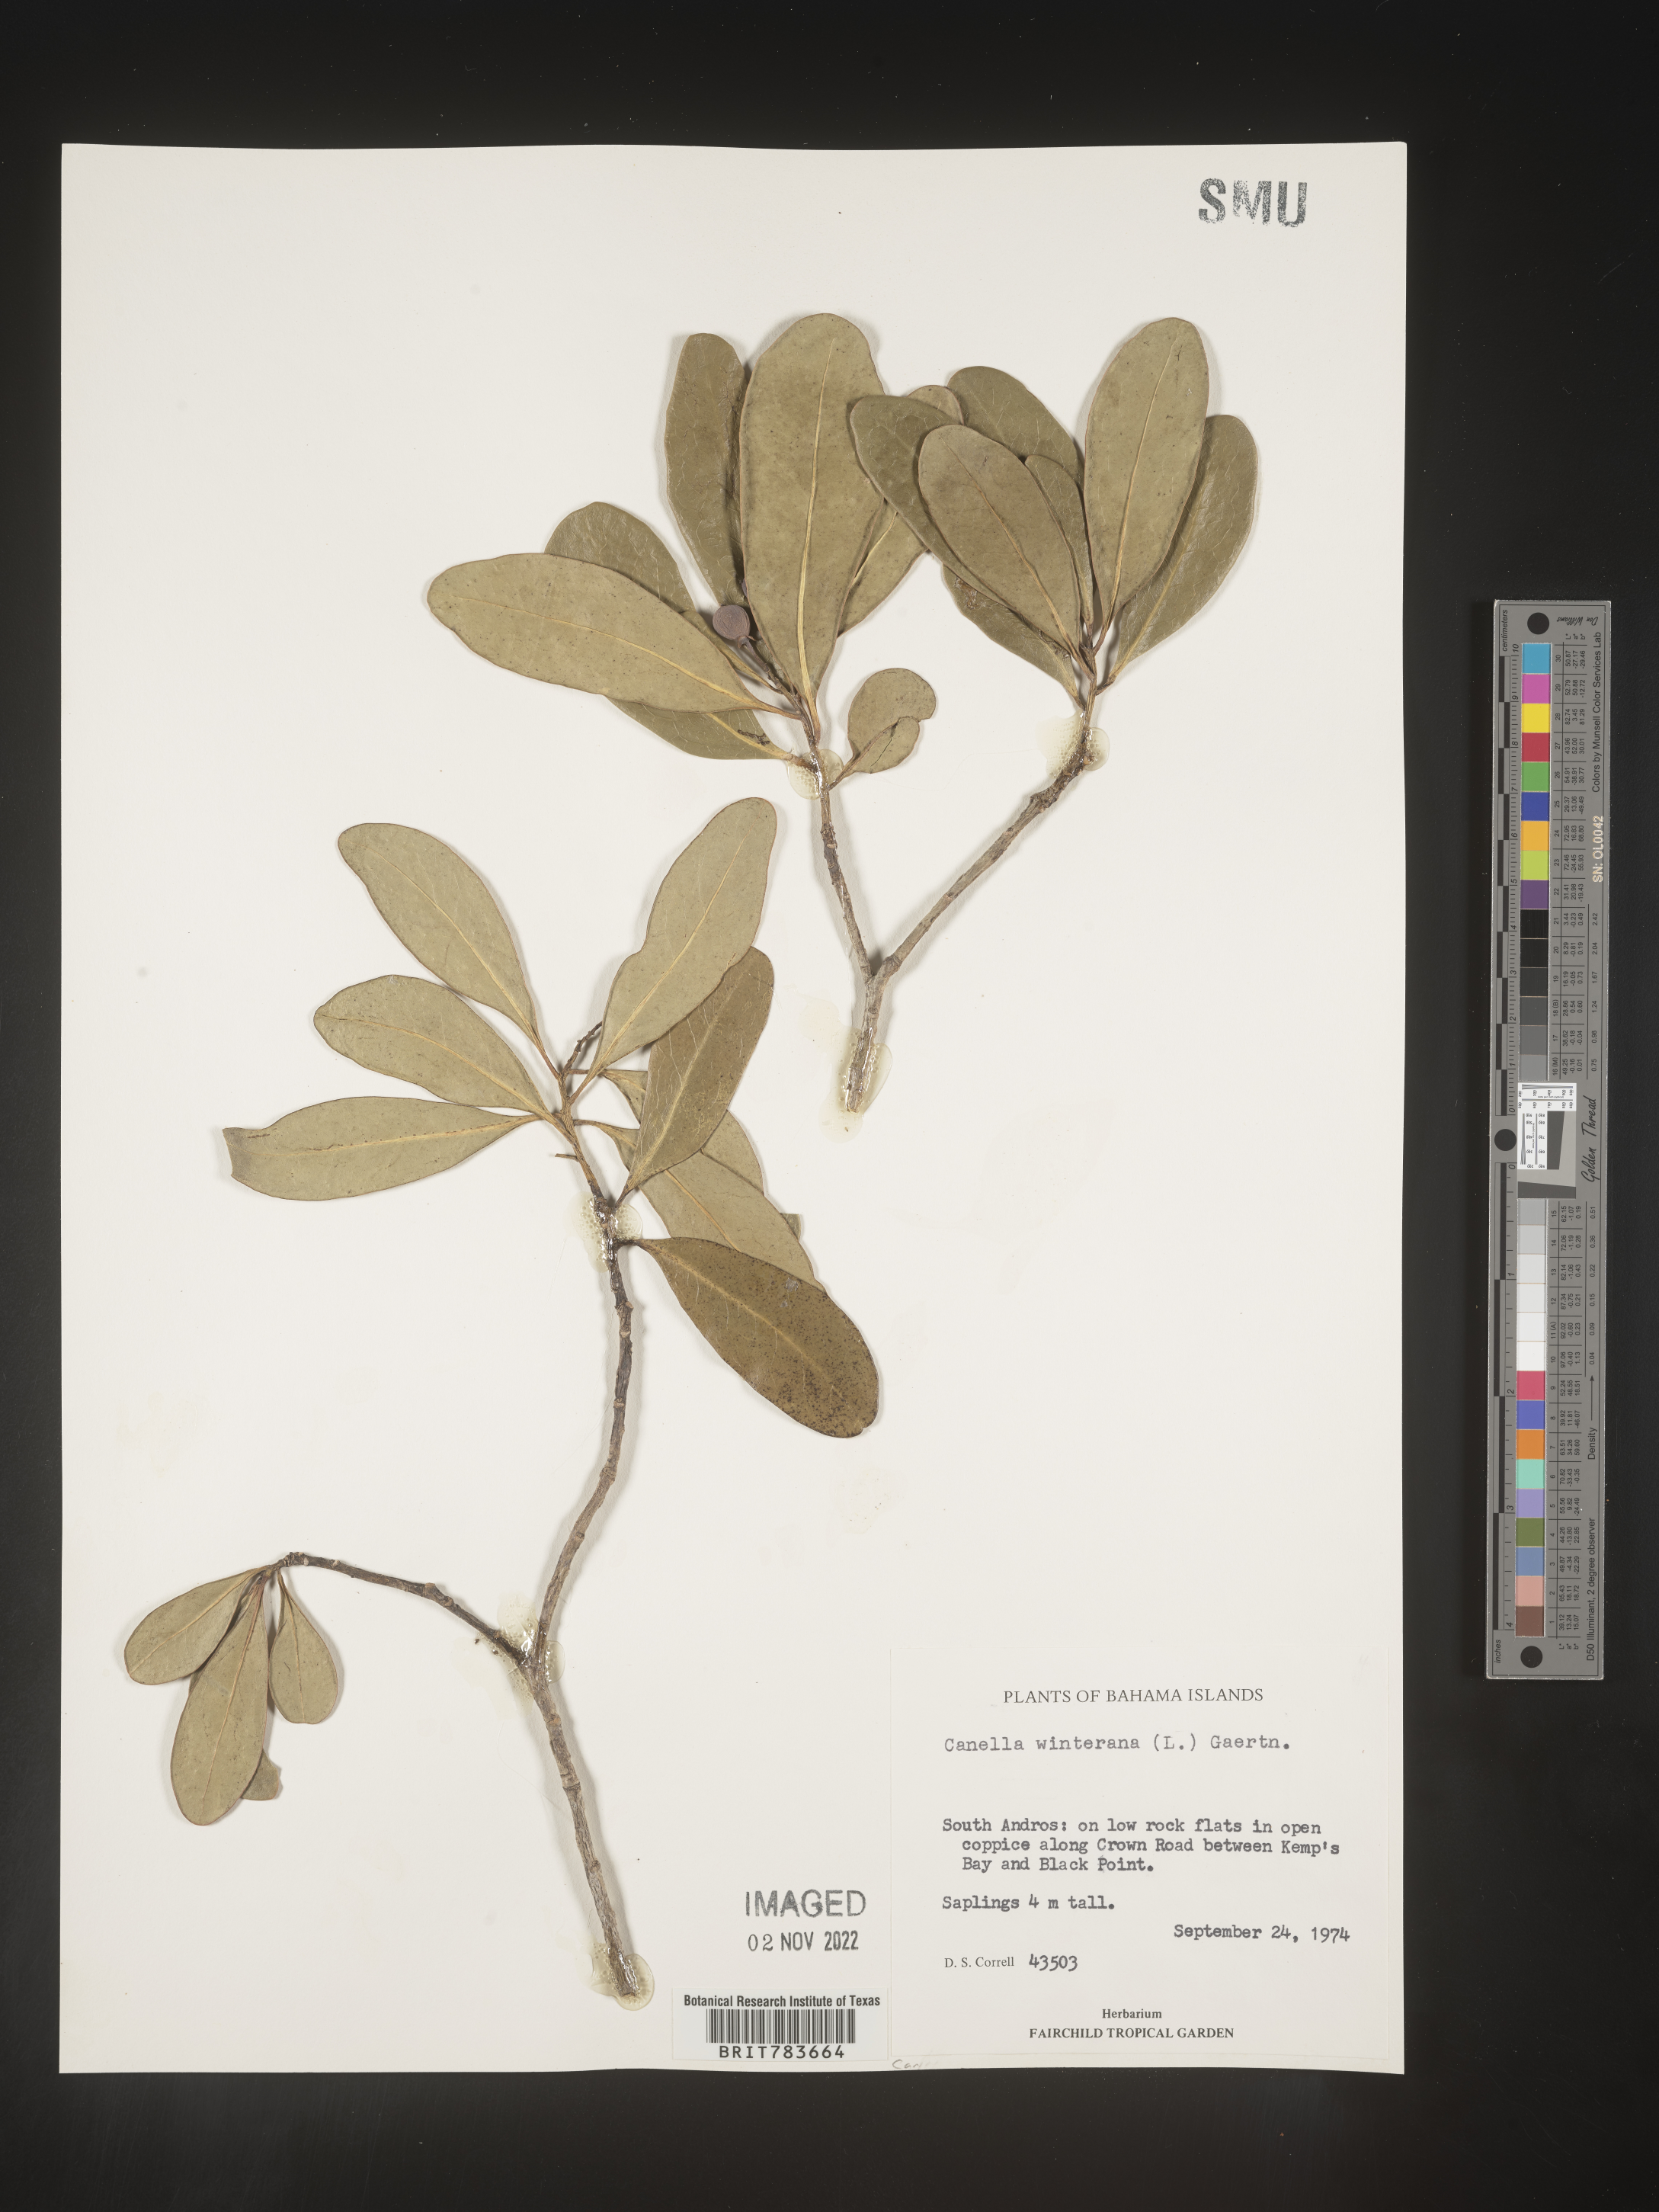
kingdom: Plantae
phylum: Tracheophyta
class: Magnoliopsida
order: Canellales
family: Canellaceae
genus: Canella
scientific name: Canella
